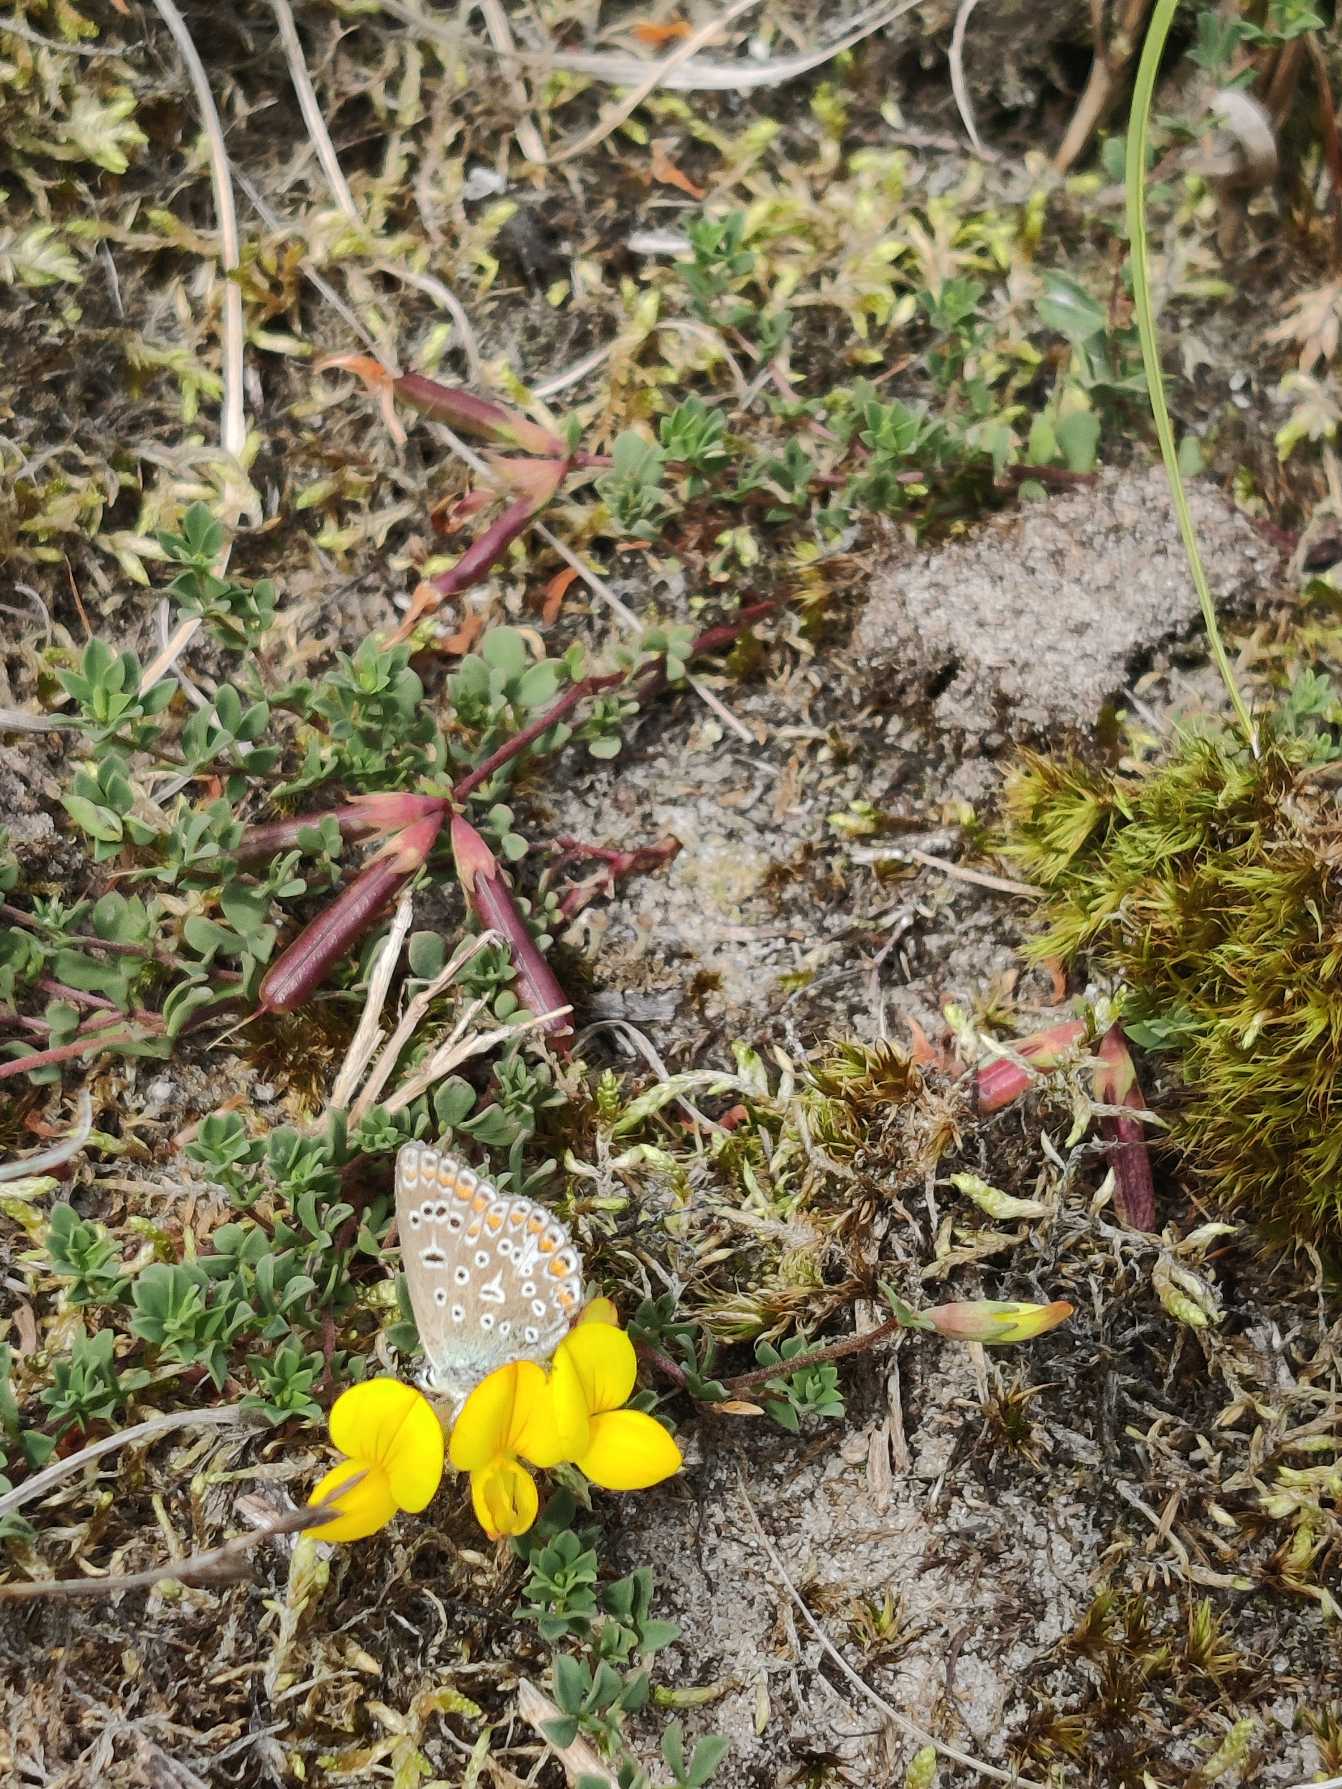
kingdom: Animalia
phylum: Arthropoda
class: Insecta
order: Lepidoptera
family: Lycaenidae
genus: Polyommatus
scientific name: Polyommatus icarus
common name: Almindelig blåfugl
